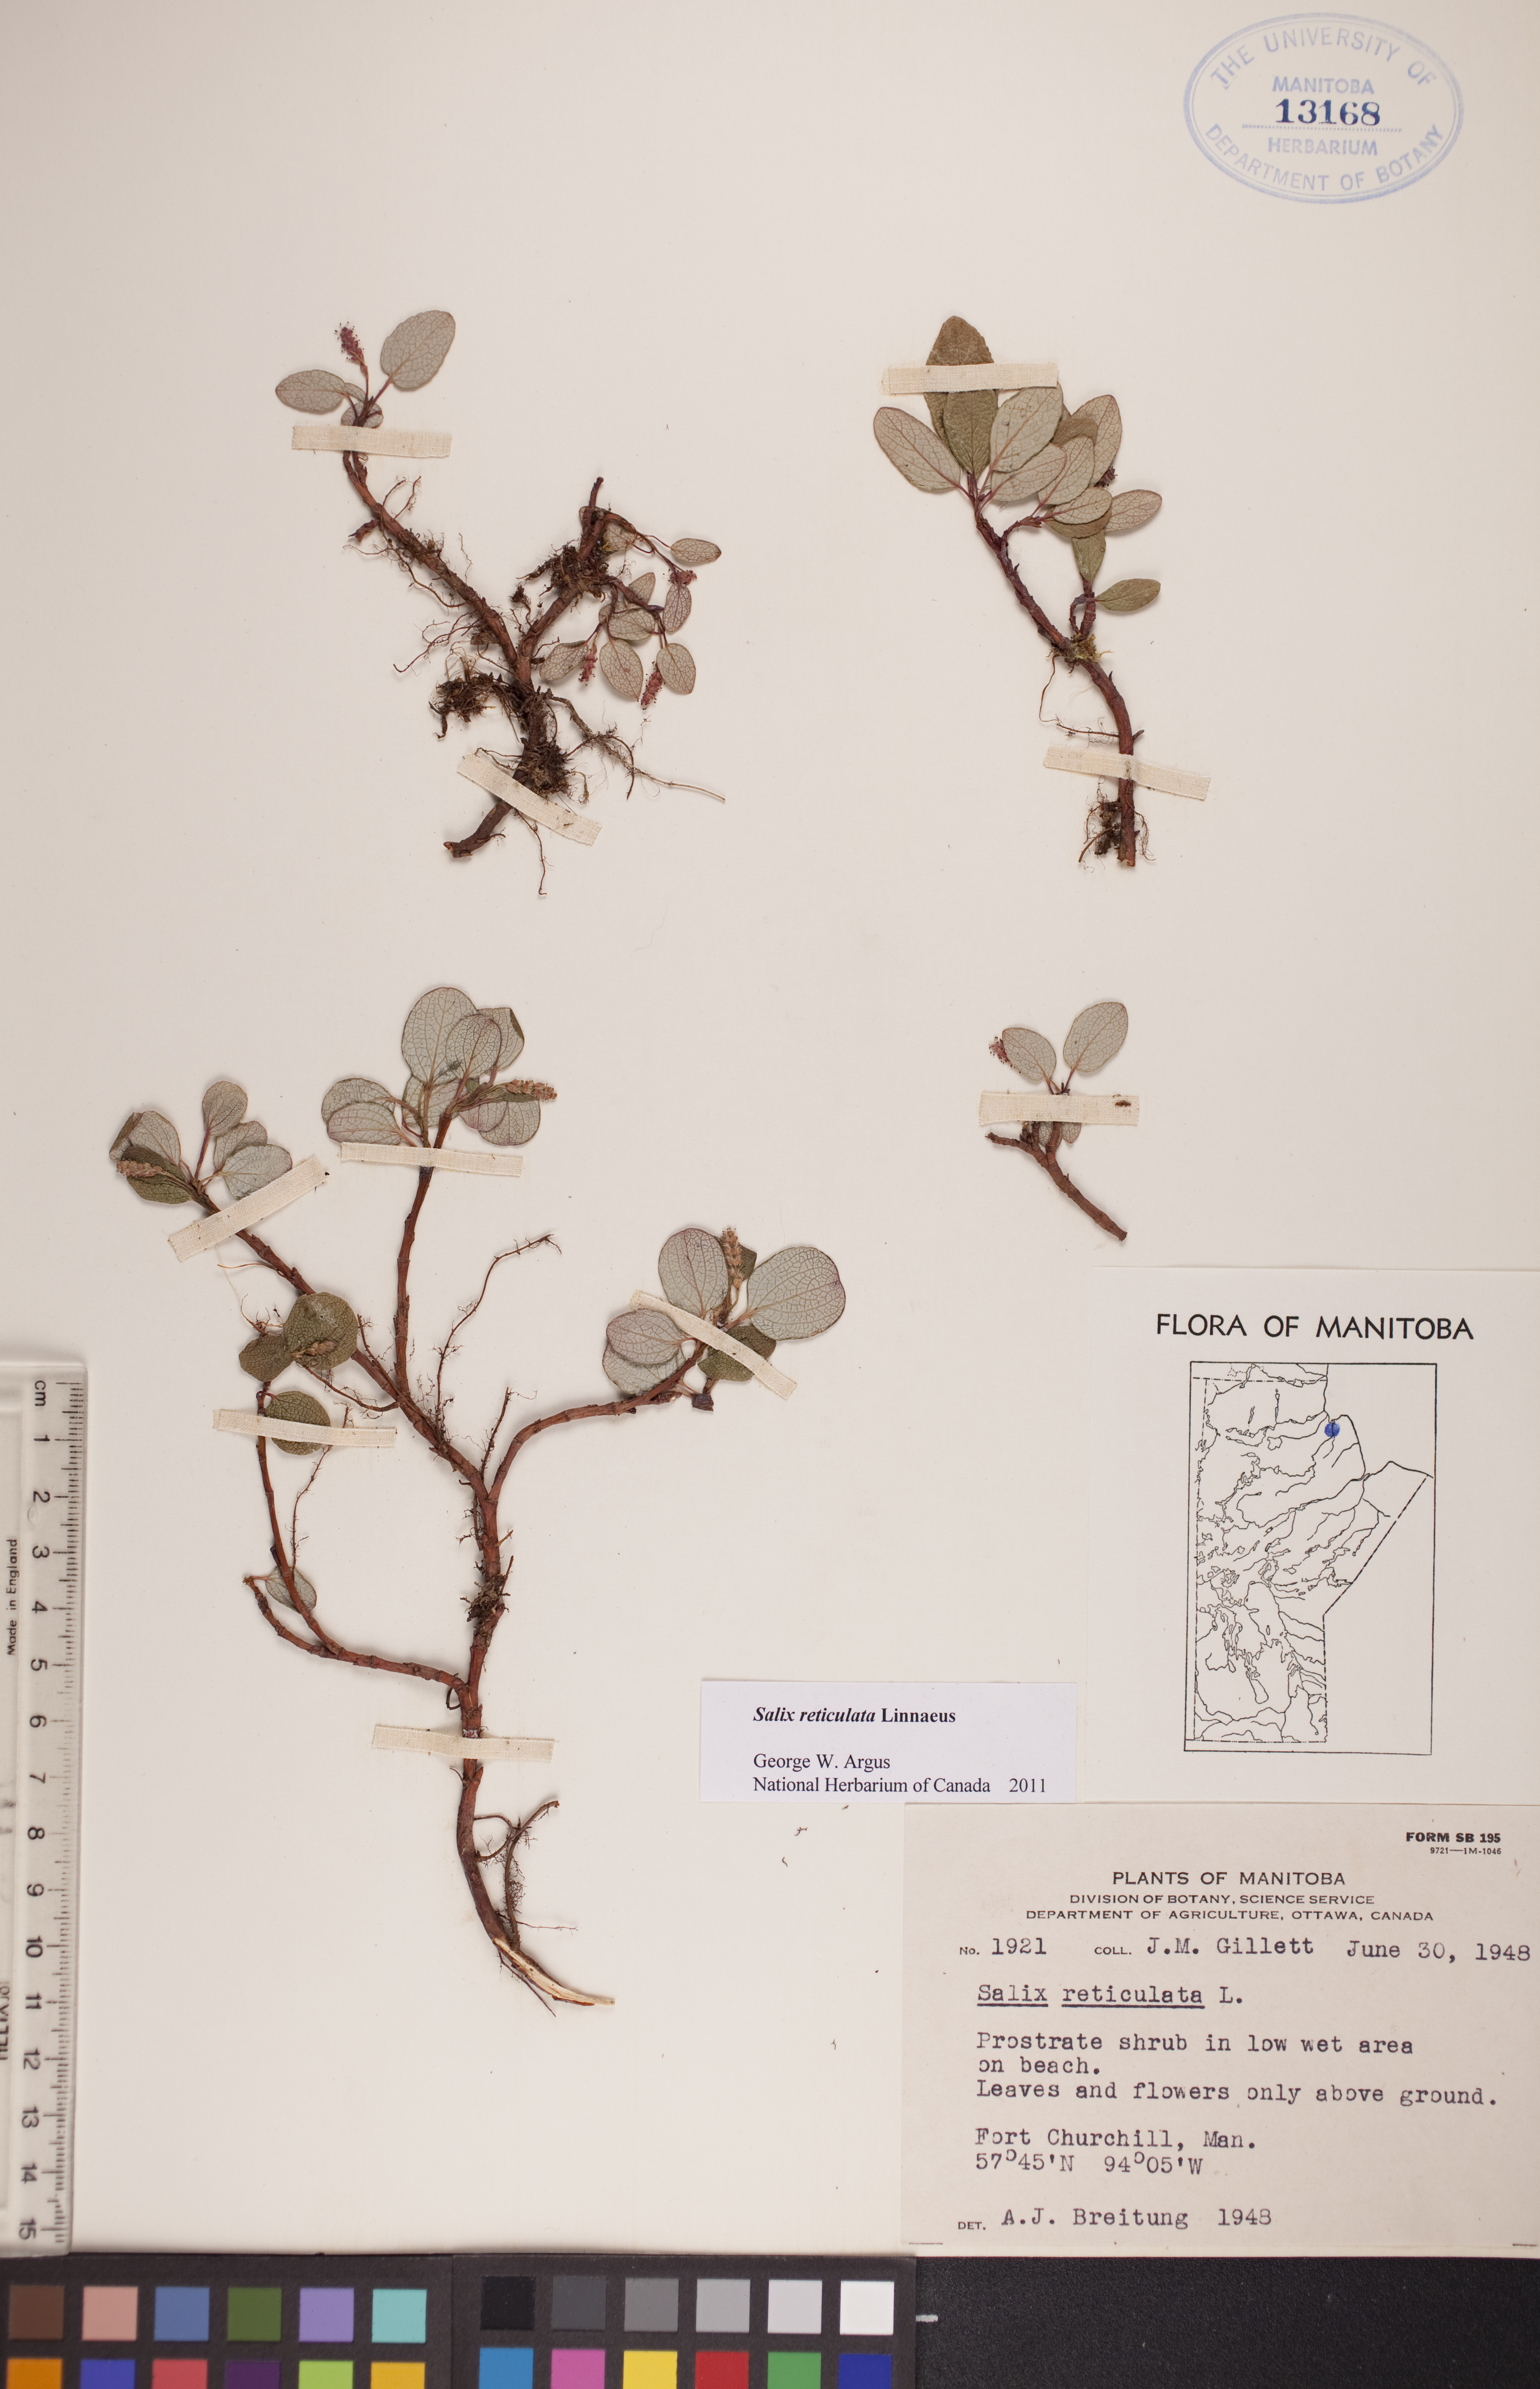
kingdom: Plantae
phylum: Tracheophyta
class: Magnoliopsida
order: Malpighiales
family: Salicaceae
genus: Salix
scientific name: Salix reticulata
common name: Net-leaved willow
